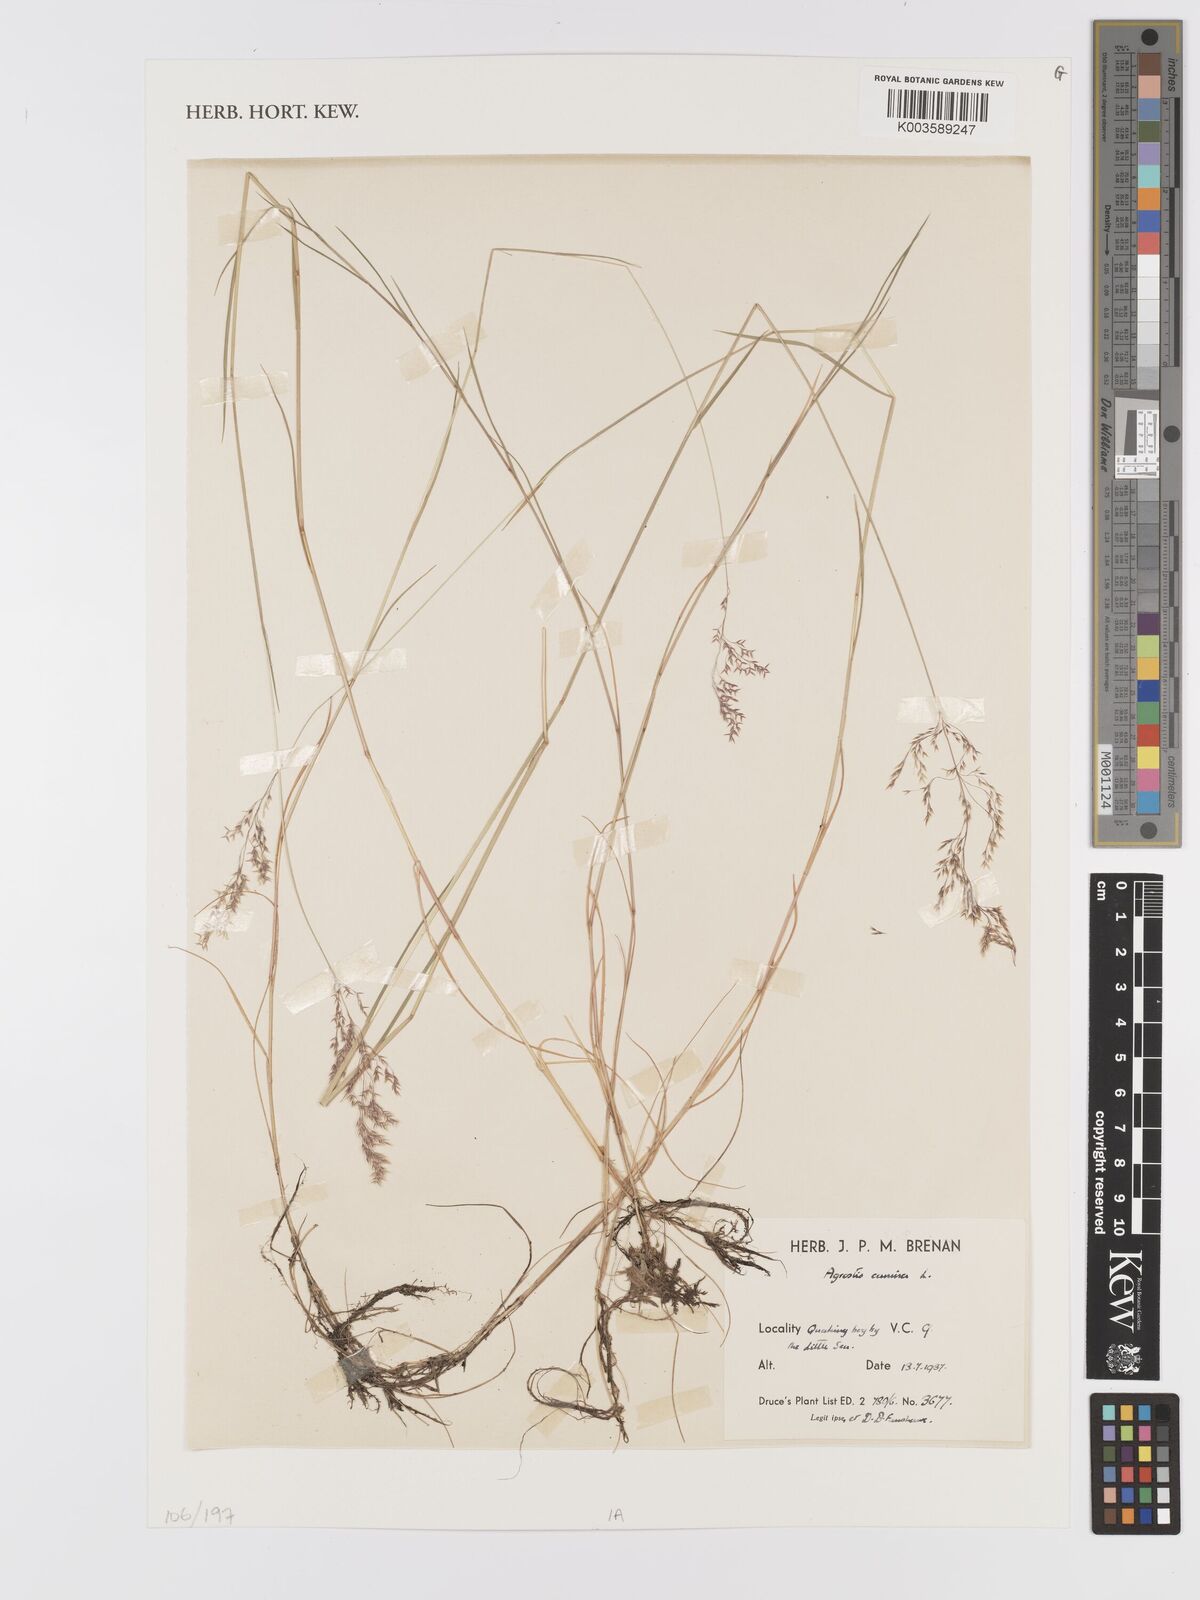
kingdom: Plantae
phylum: Tracheophyta
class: Liliopsida
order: Poales
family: Poaceae
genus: Agrostis
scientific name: Agrostis canina
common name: Velvet bent
